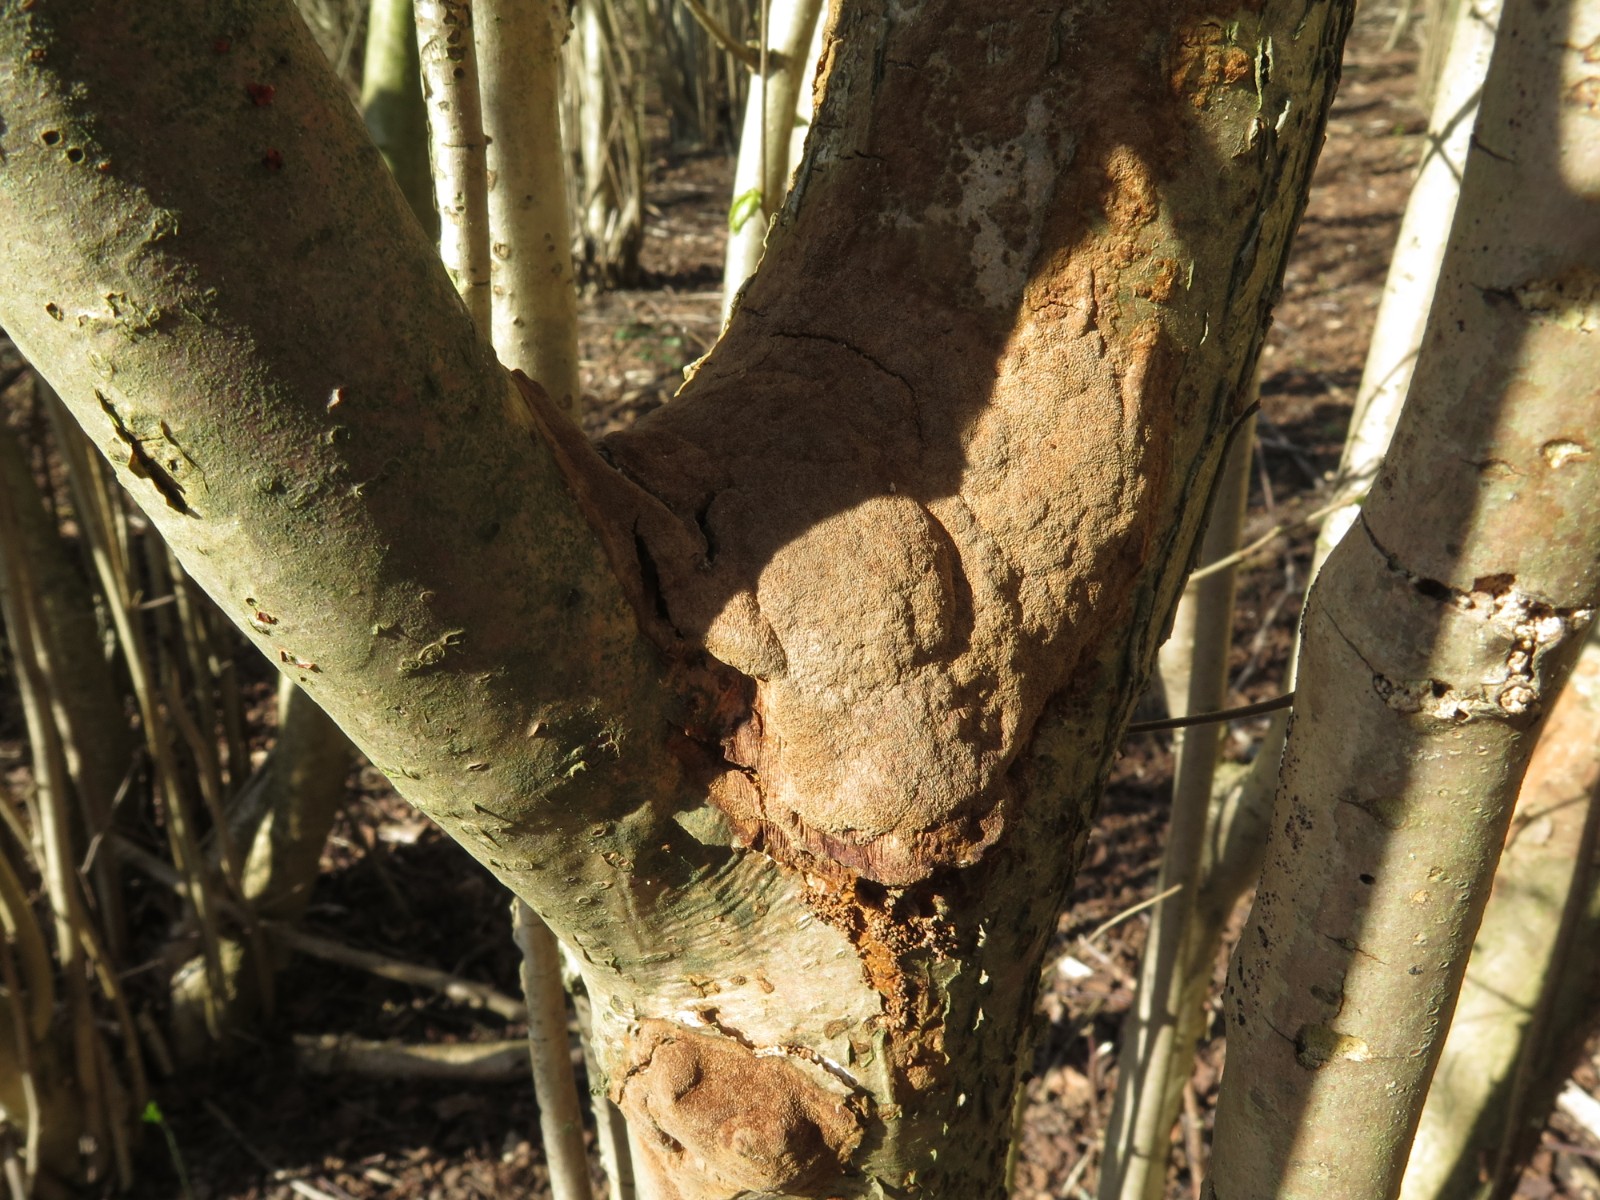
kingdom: Fungi
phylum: Basidiomycota
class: Agaricomycetes
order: Hymenochaetales
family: Hymenochaetaceae
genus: Fuscoporia
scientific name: Fuscoporia ferrea
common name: skorpe-ildporesvamp
